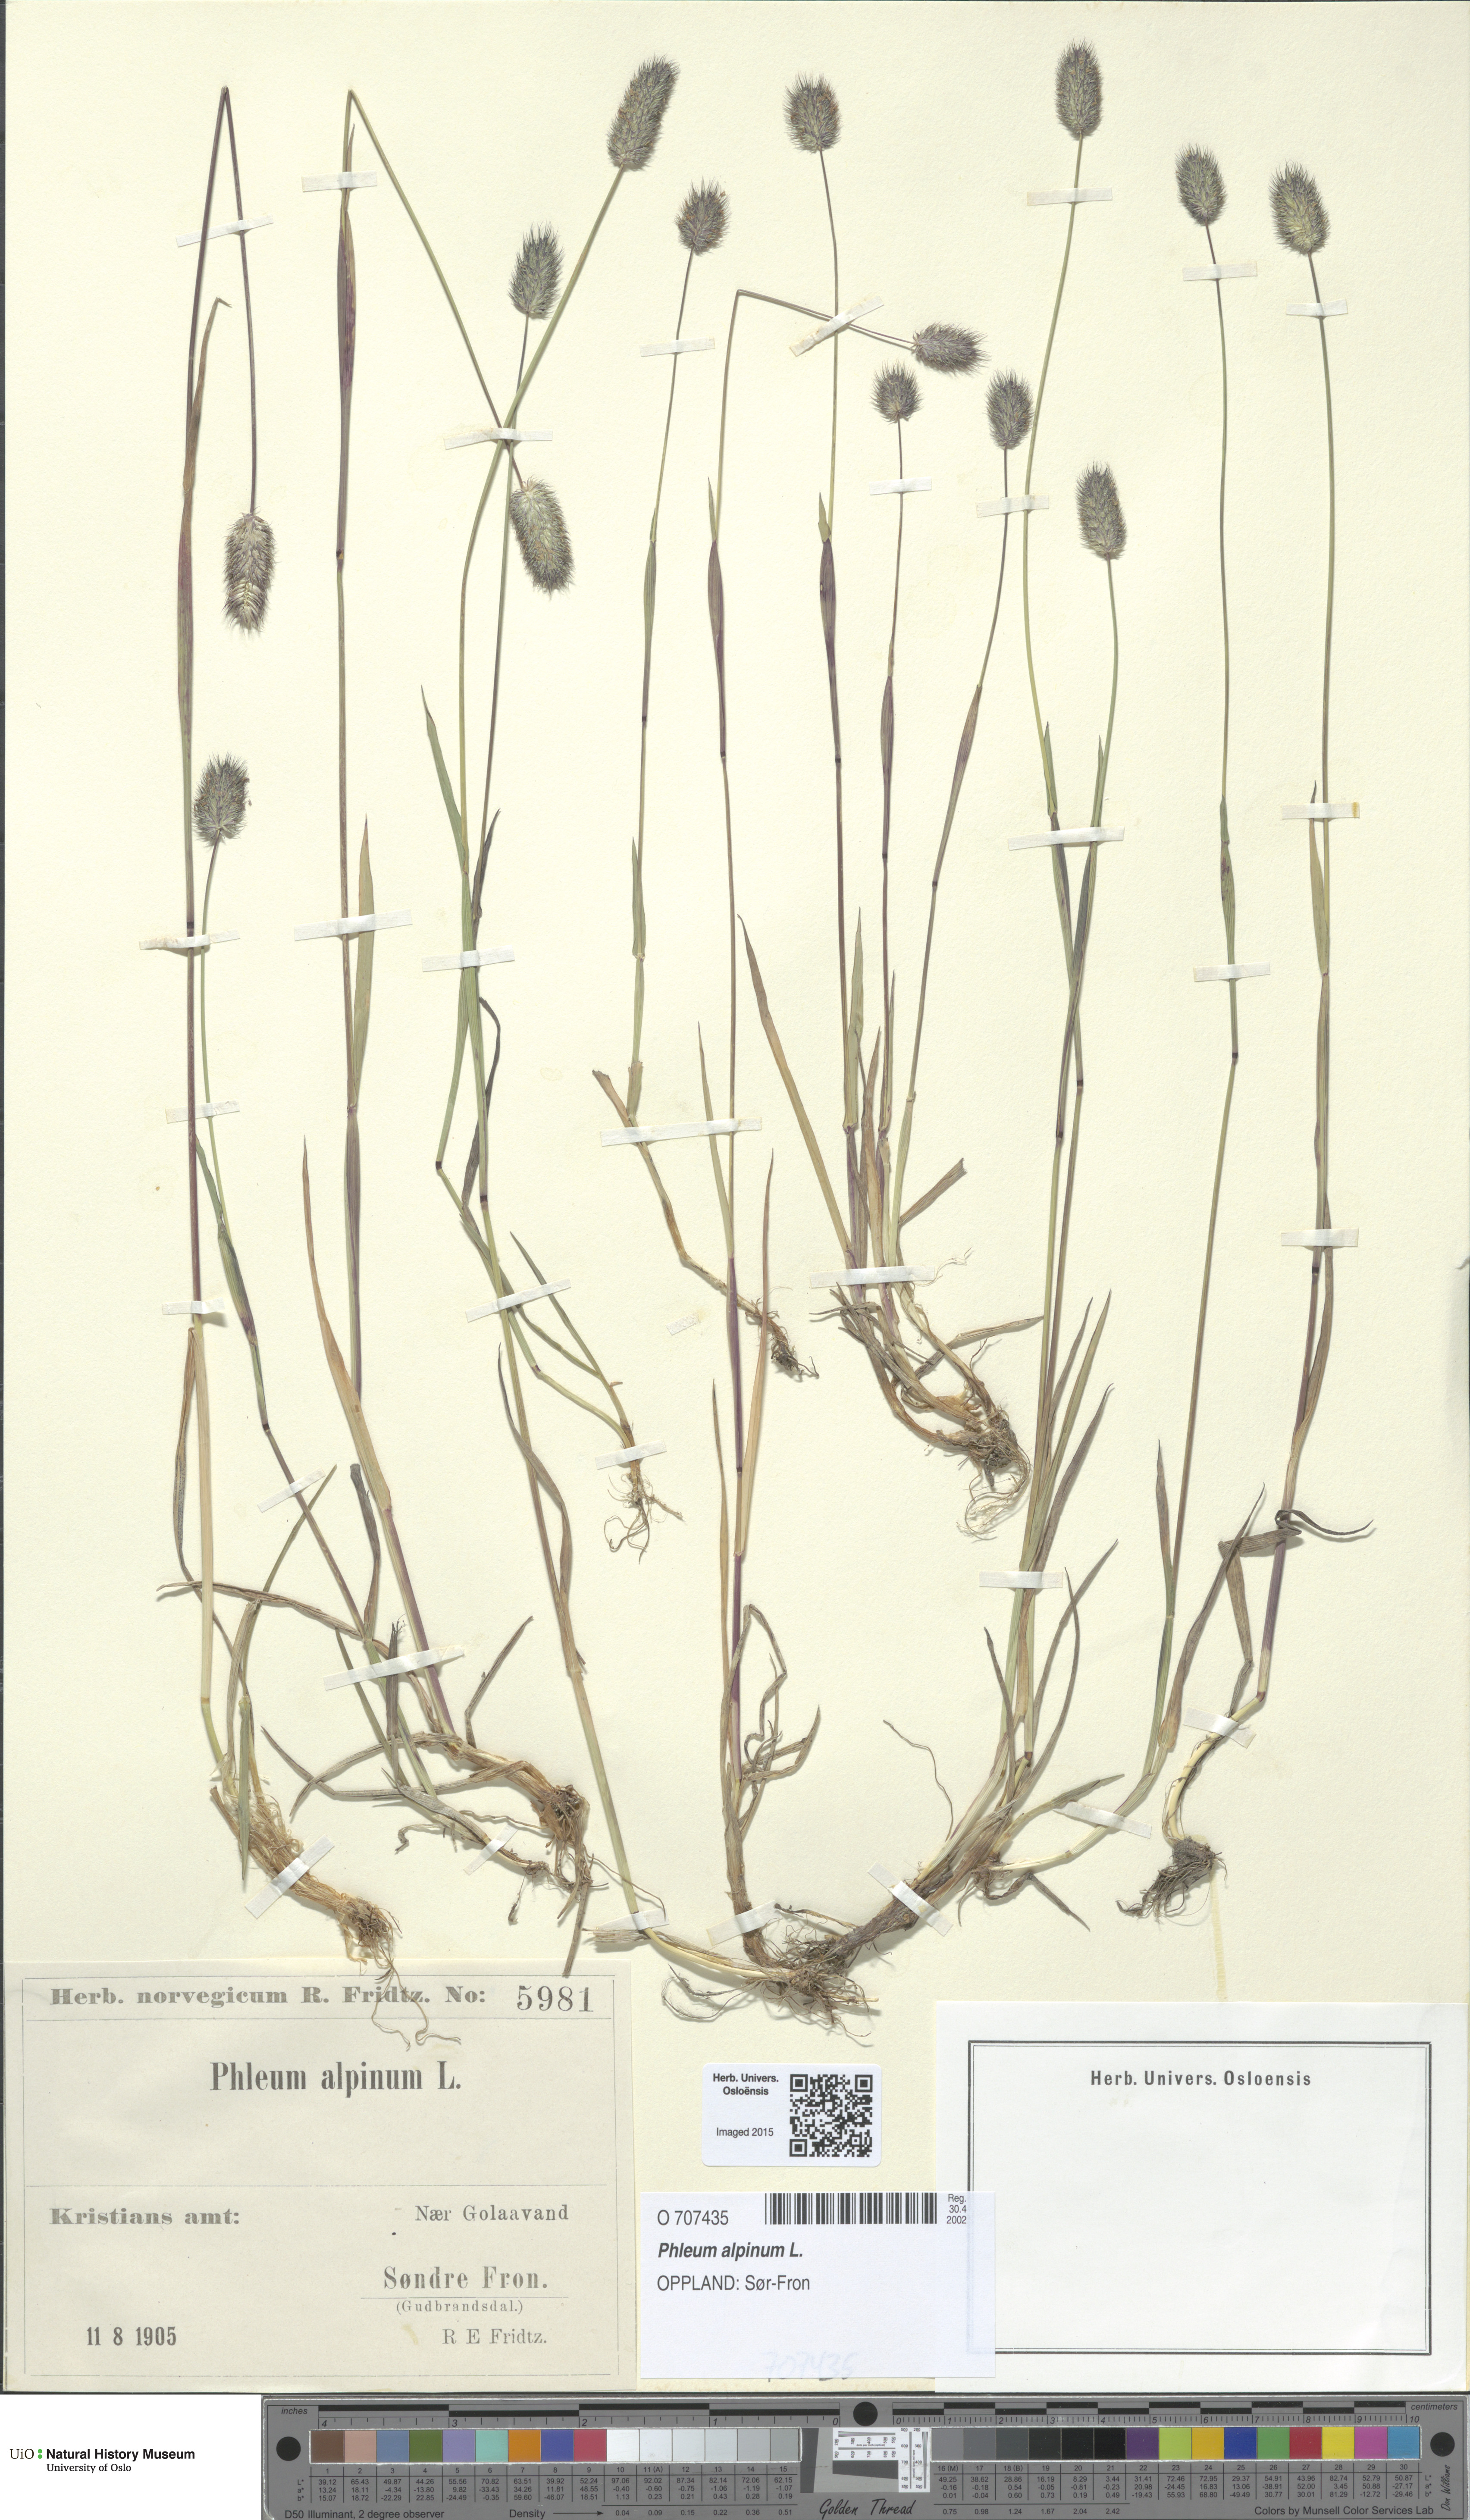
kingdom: Plantae
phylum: Tracheophyta
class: Liliopsida
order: Poales
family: Poaceae
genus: Phleum
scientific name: Phleum alpinum
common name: Alpine cat's-tail
